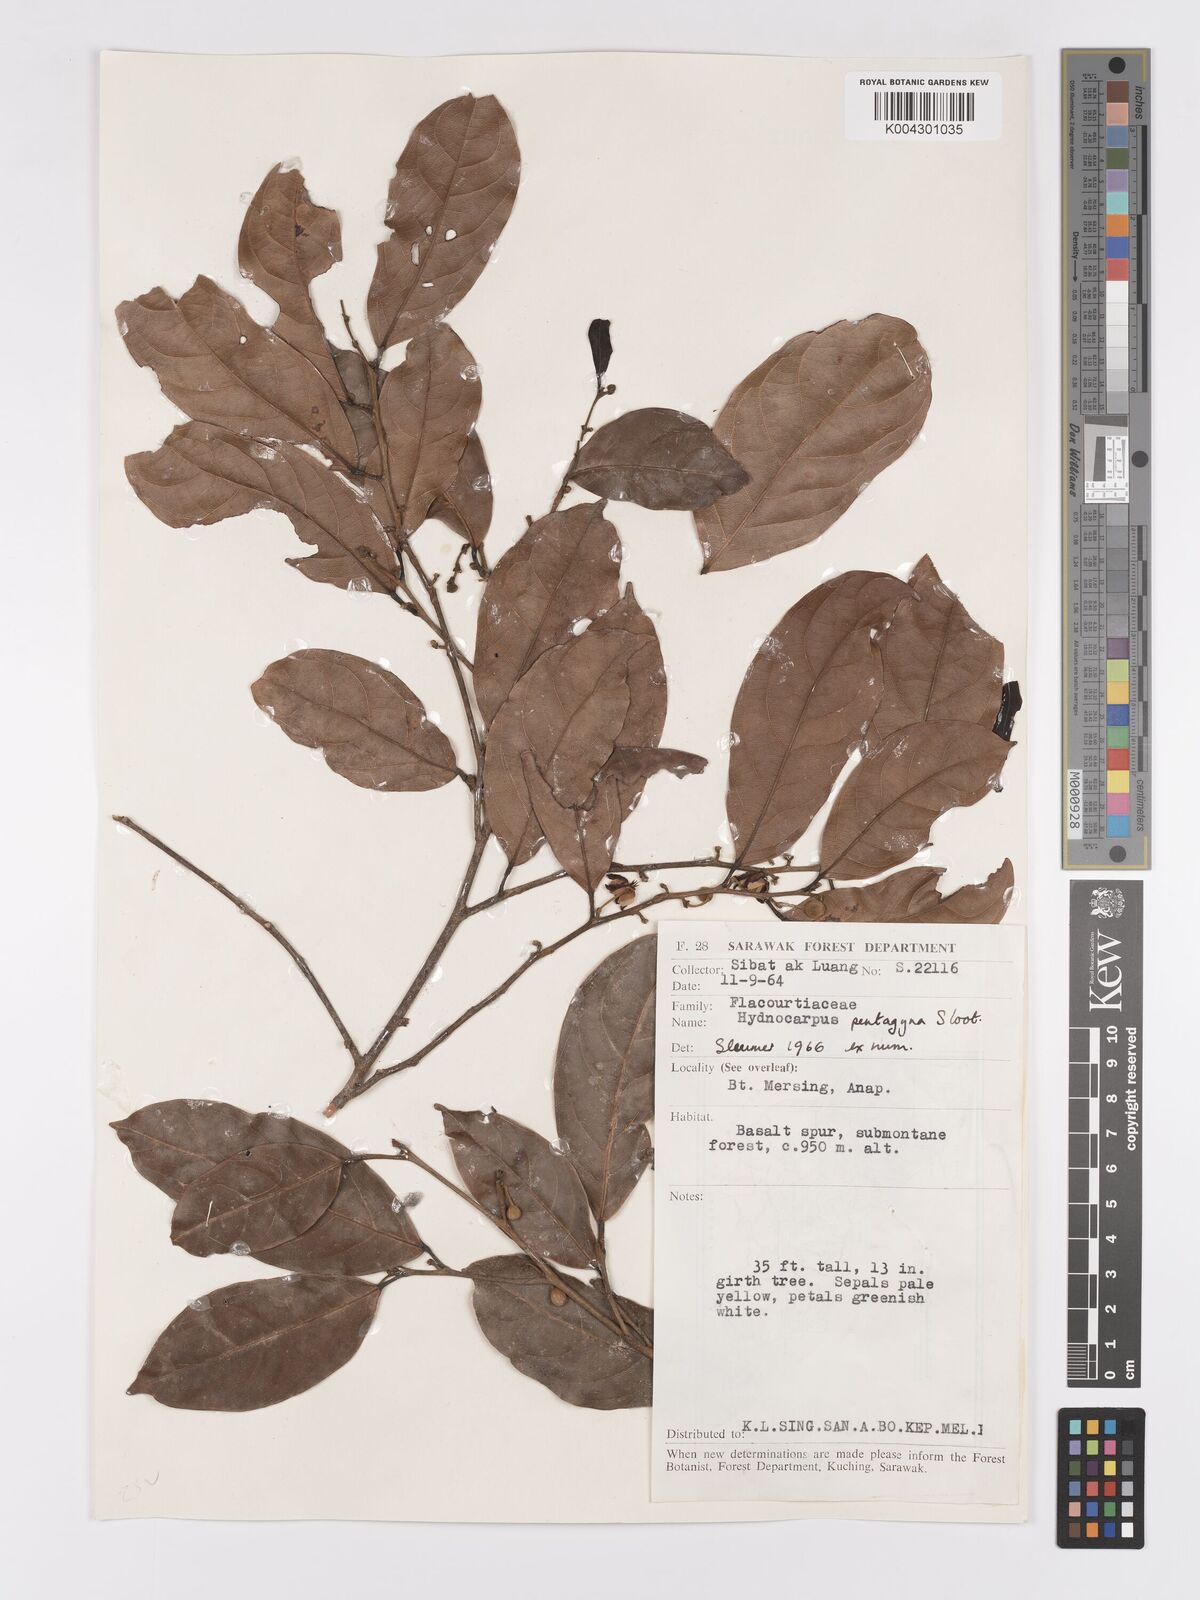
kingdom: Plantae
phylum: Tracheophyta
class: Magnoliopsida
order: Malpighiales
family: Achariaceae
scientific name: Achariaceae
